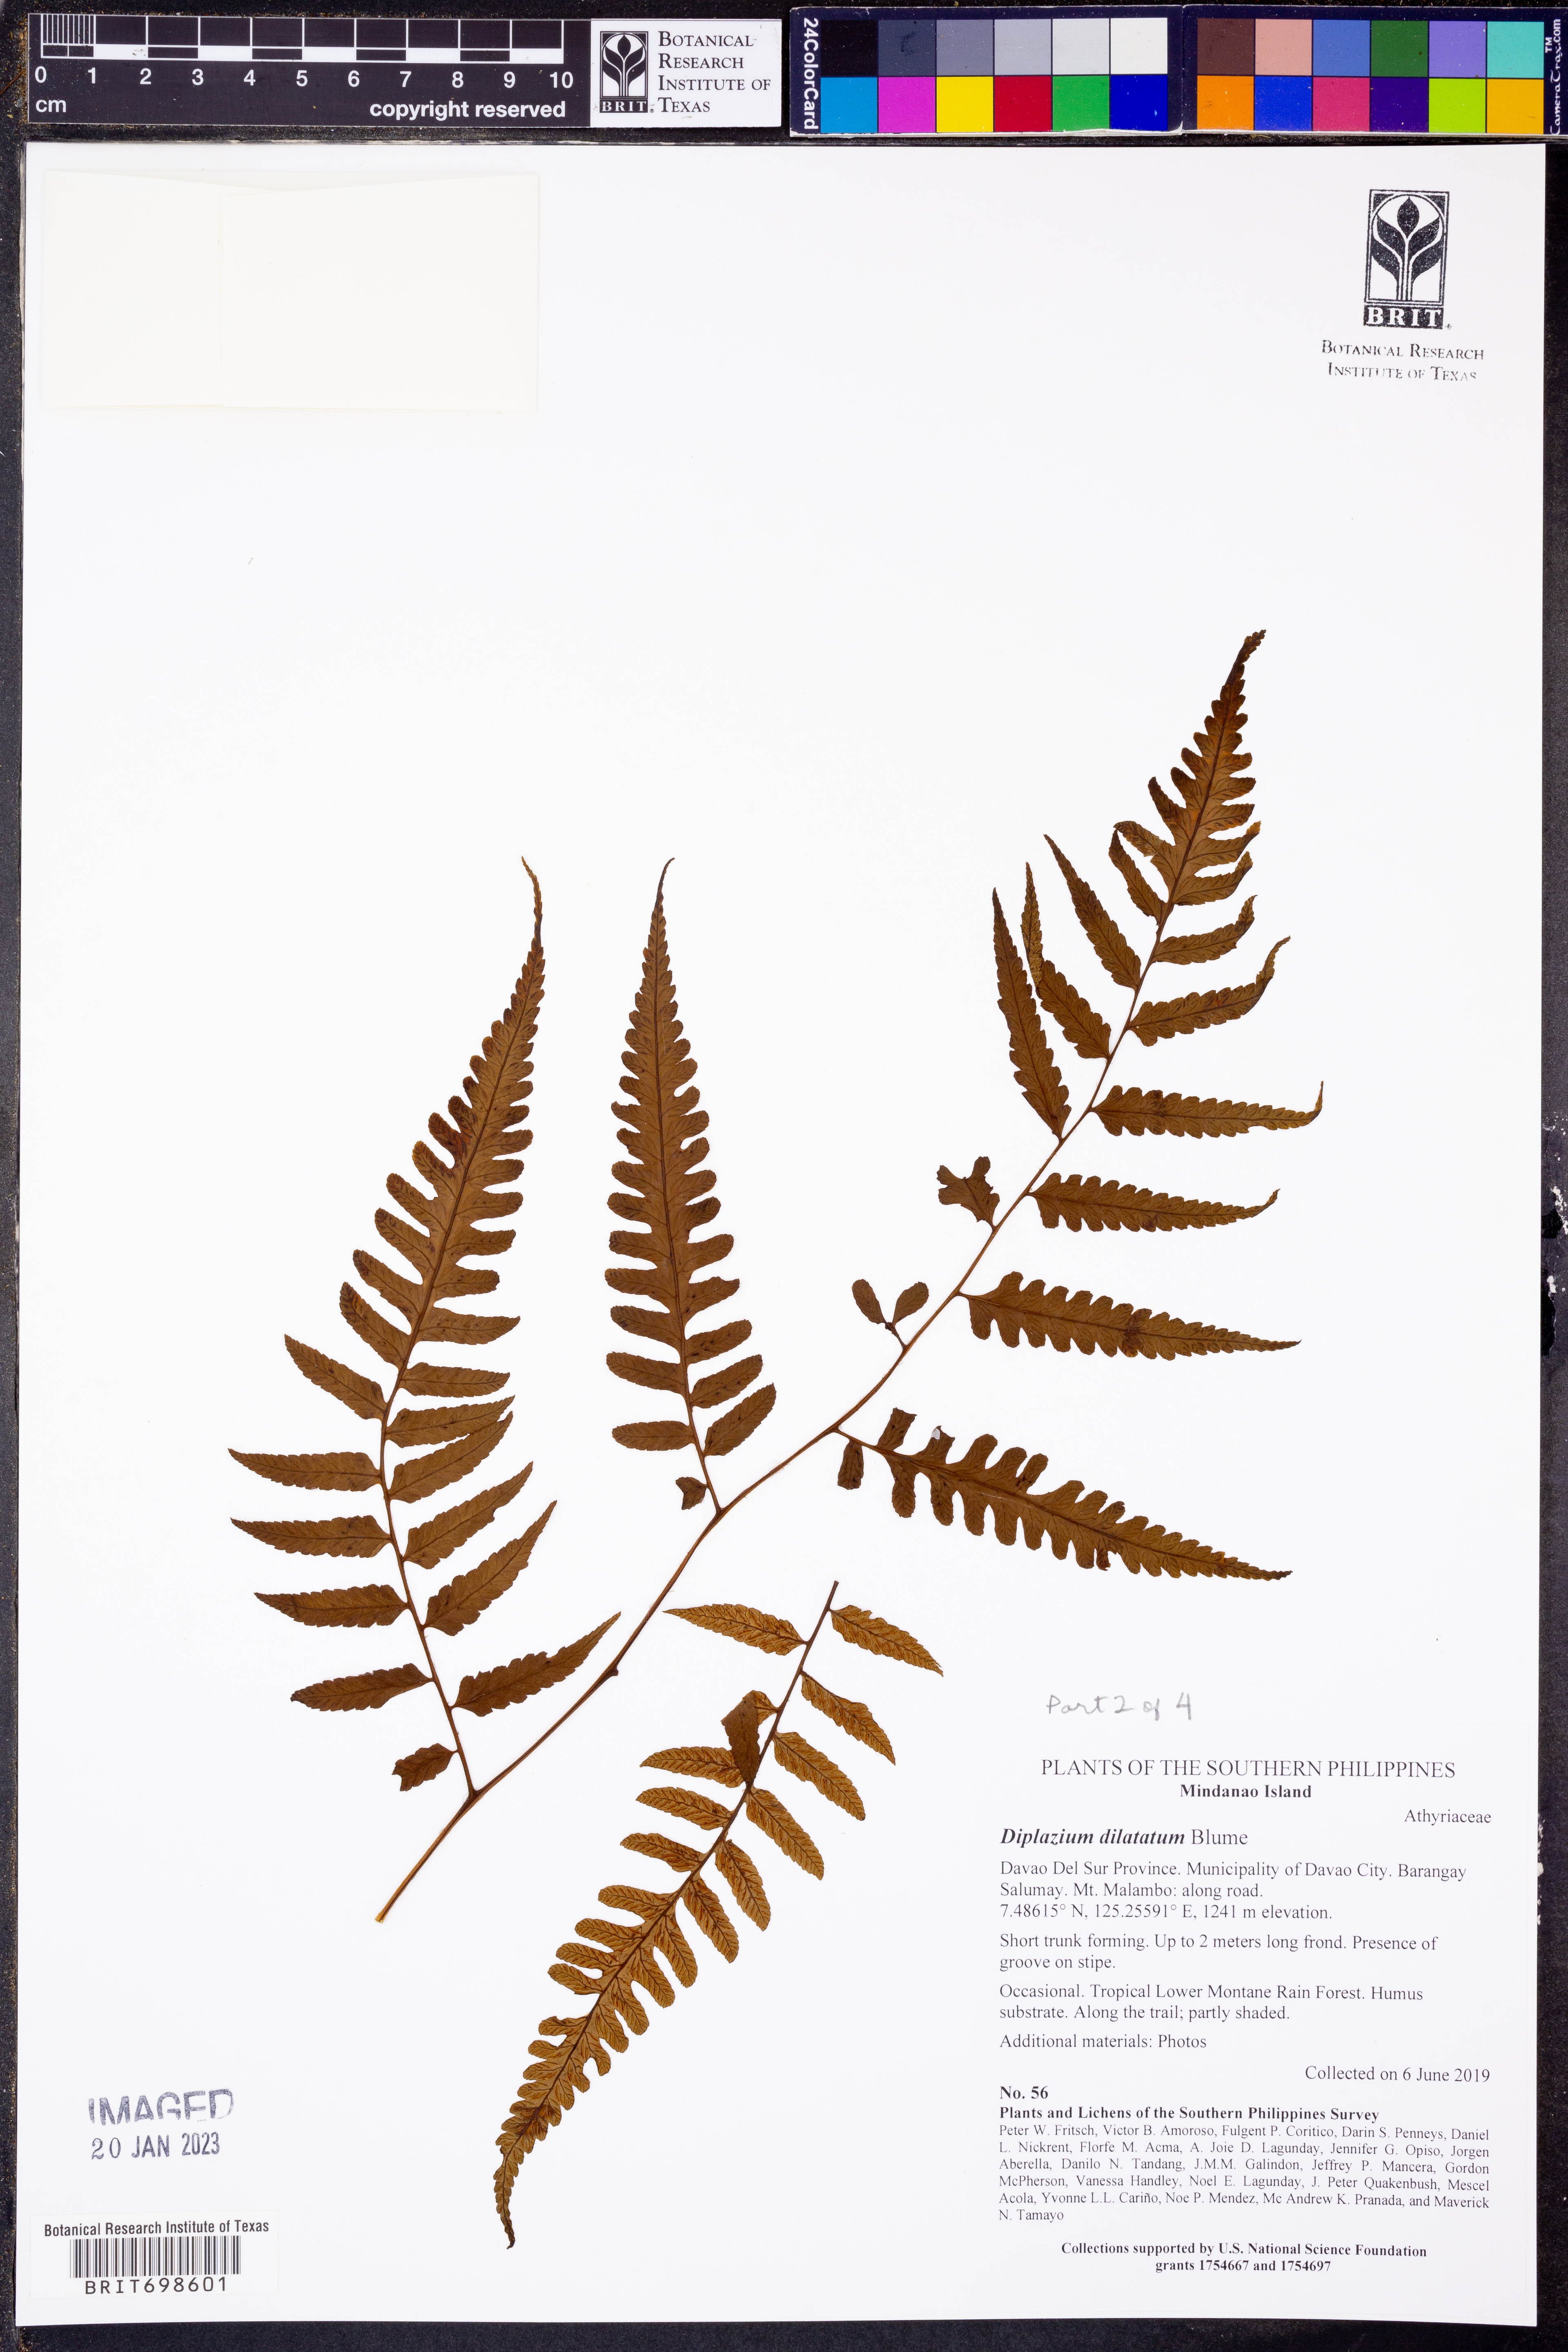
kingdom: Plantae
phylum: Tracheophyta
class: Polypodiopsida
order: Polypodiales
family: Athyriaceae
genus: Diplazium
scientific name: Diplazium dilatatum
